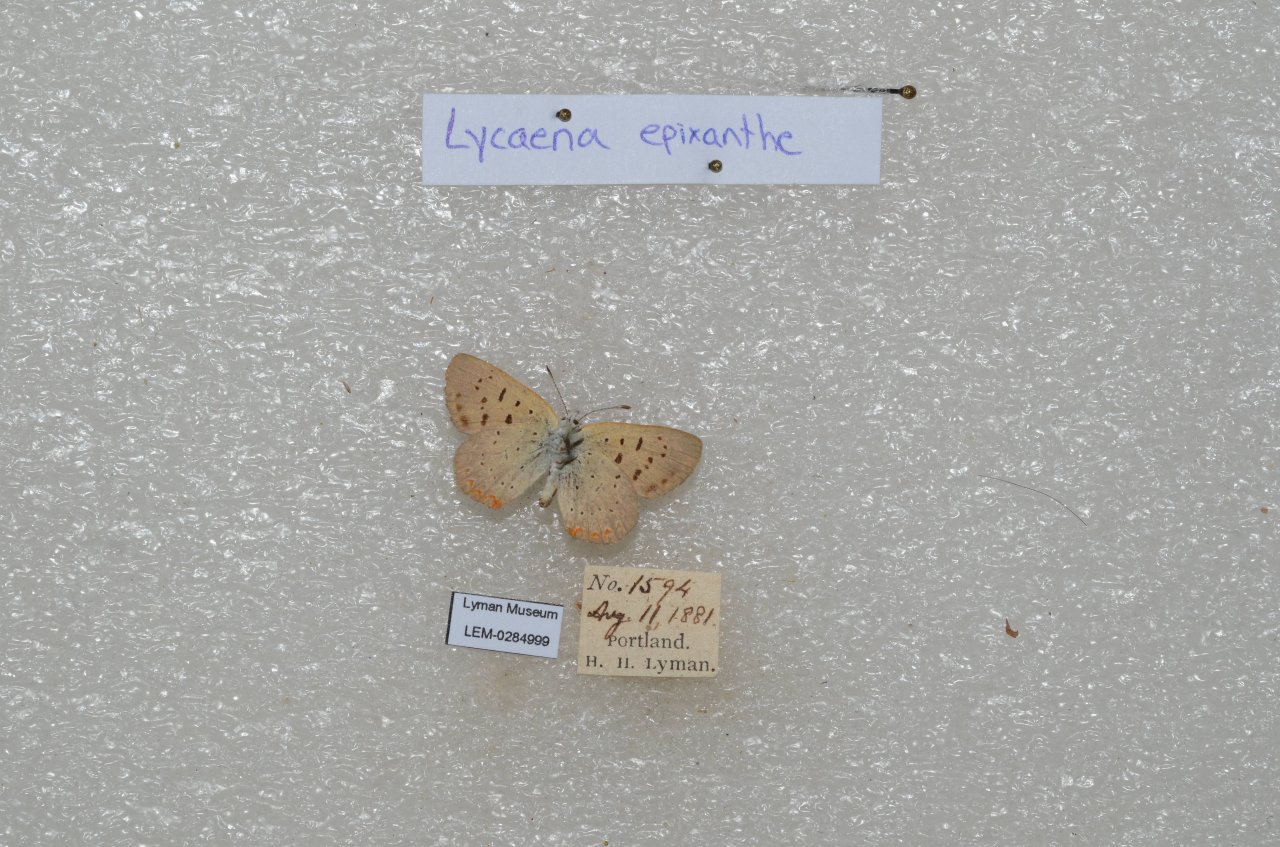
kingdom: Animalia
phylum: Arthropoda
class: Insecta
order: Lepidoptera
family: Sesiidae
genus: Sesia
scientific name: Sesia Lycaena epixanthe
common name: Bog Copper
